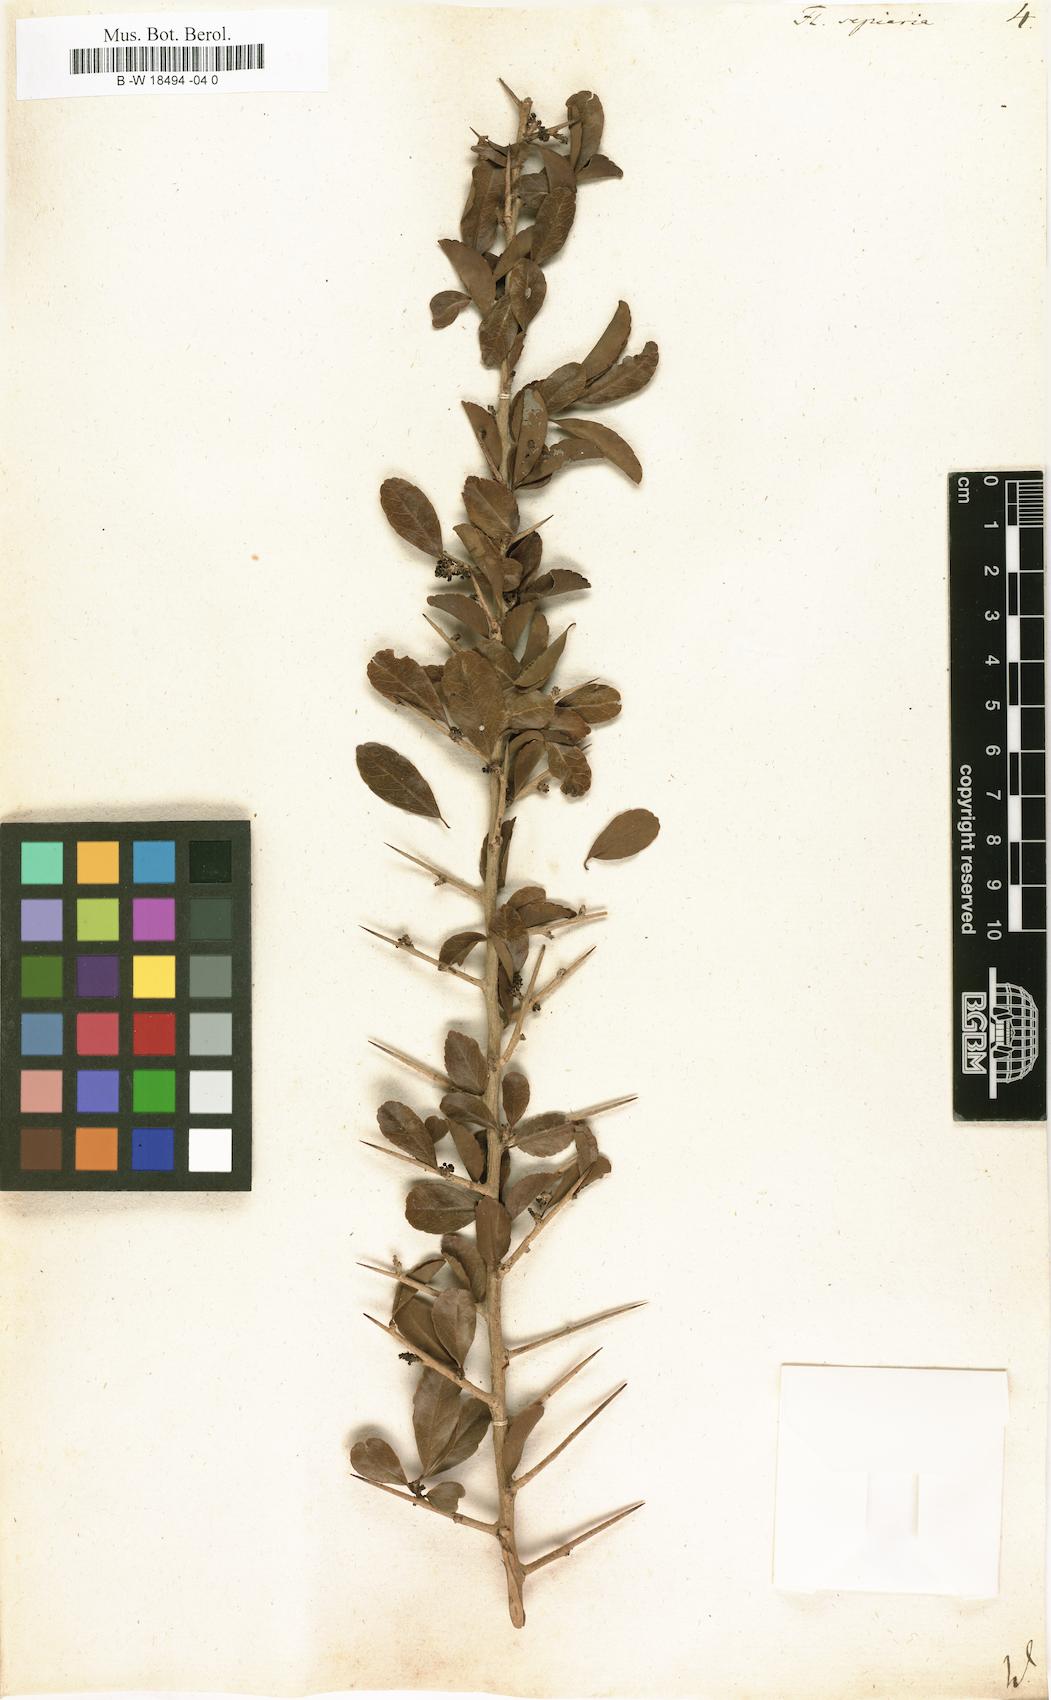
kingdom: Plantae
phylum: Tracheophyta
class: Magnoliopsida
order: Malpighiales
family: Salicaceae
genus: Flacourtia
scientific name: Flacourtia indica
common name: Governor's plum
